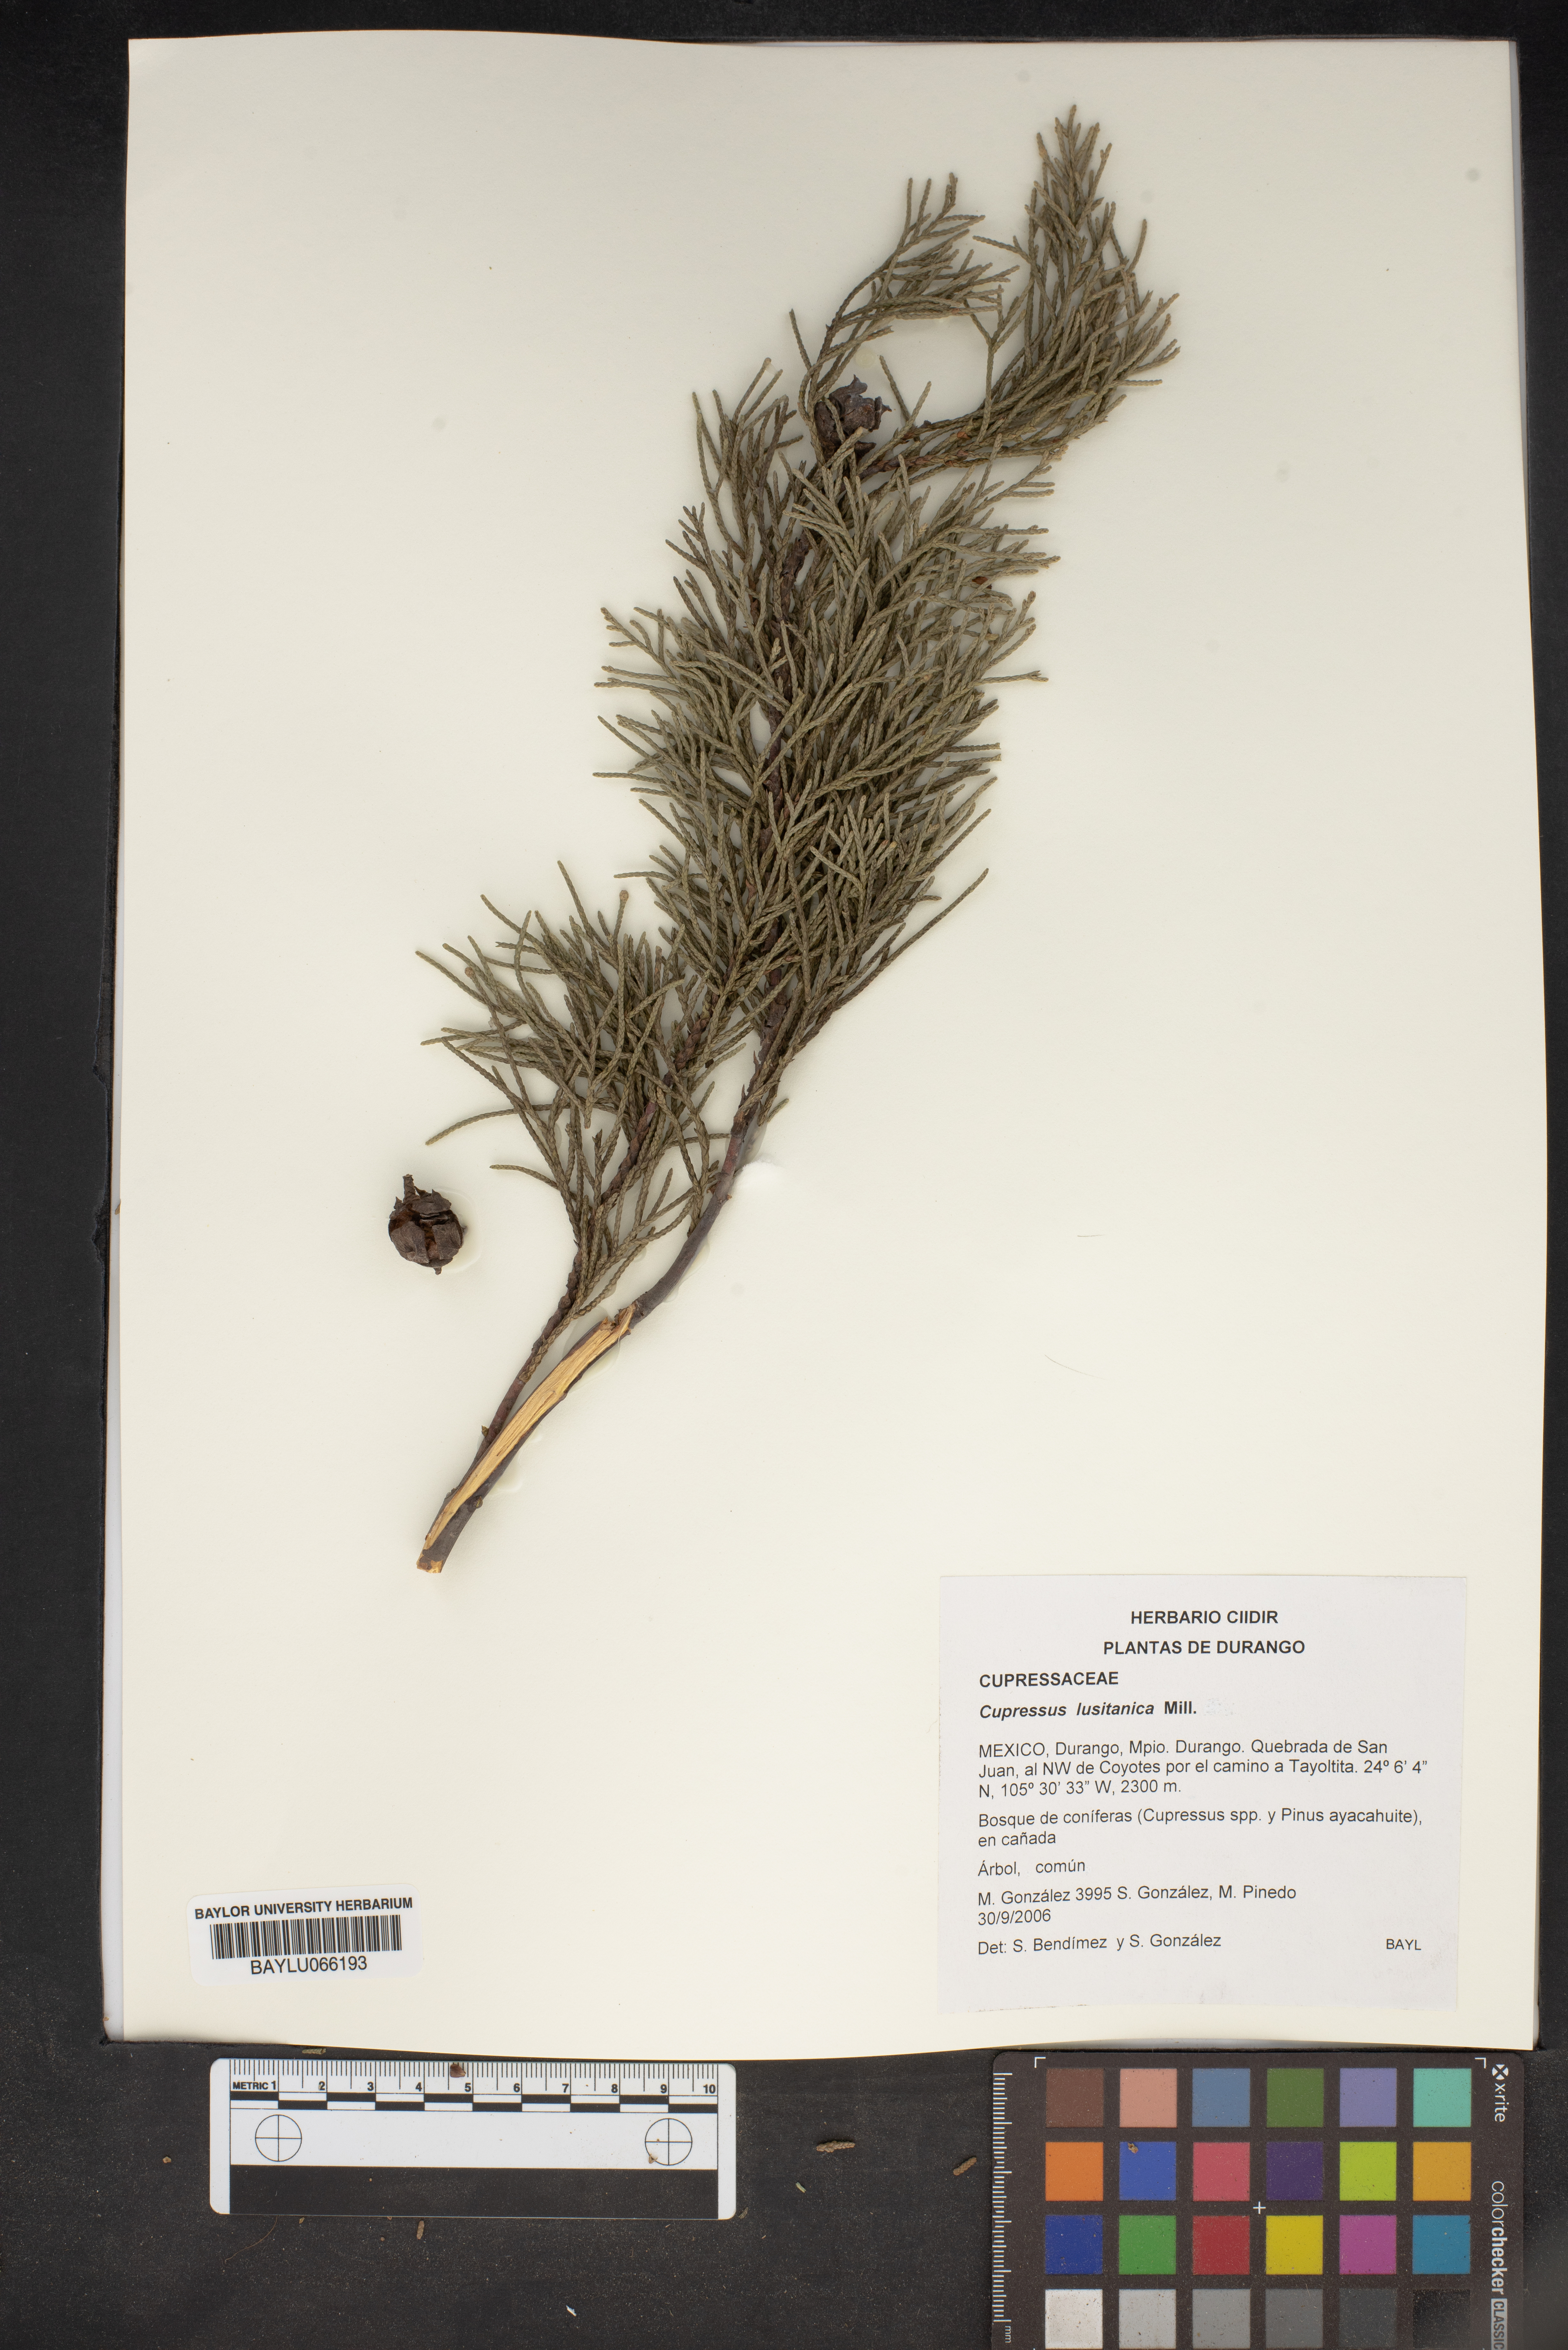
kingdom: Plantae
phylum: Tracheophyta
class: Pinopsida
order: Pinales
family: Cupressaceae
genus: Cupressus
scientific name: Cupressus lusitanica
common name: Mexican cypress
